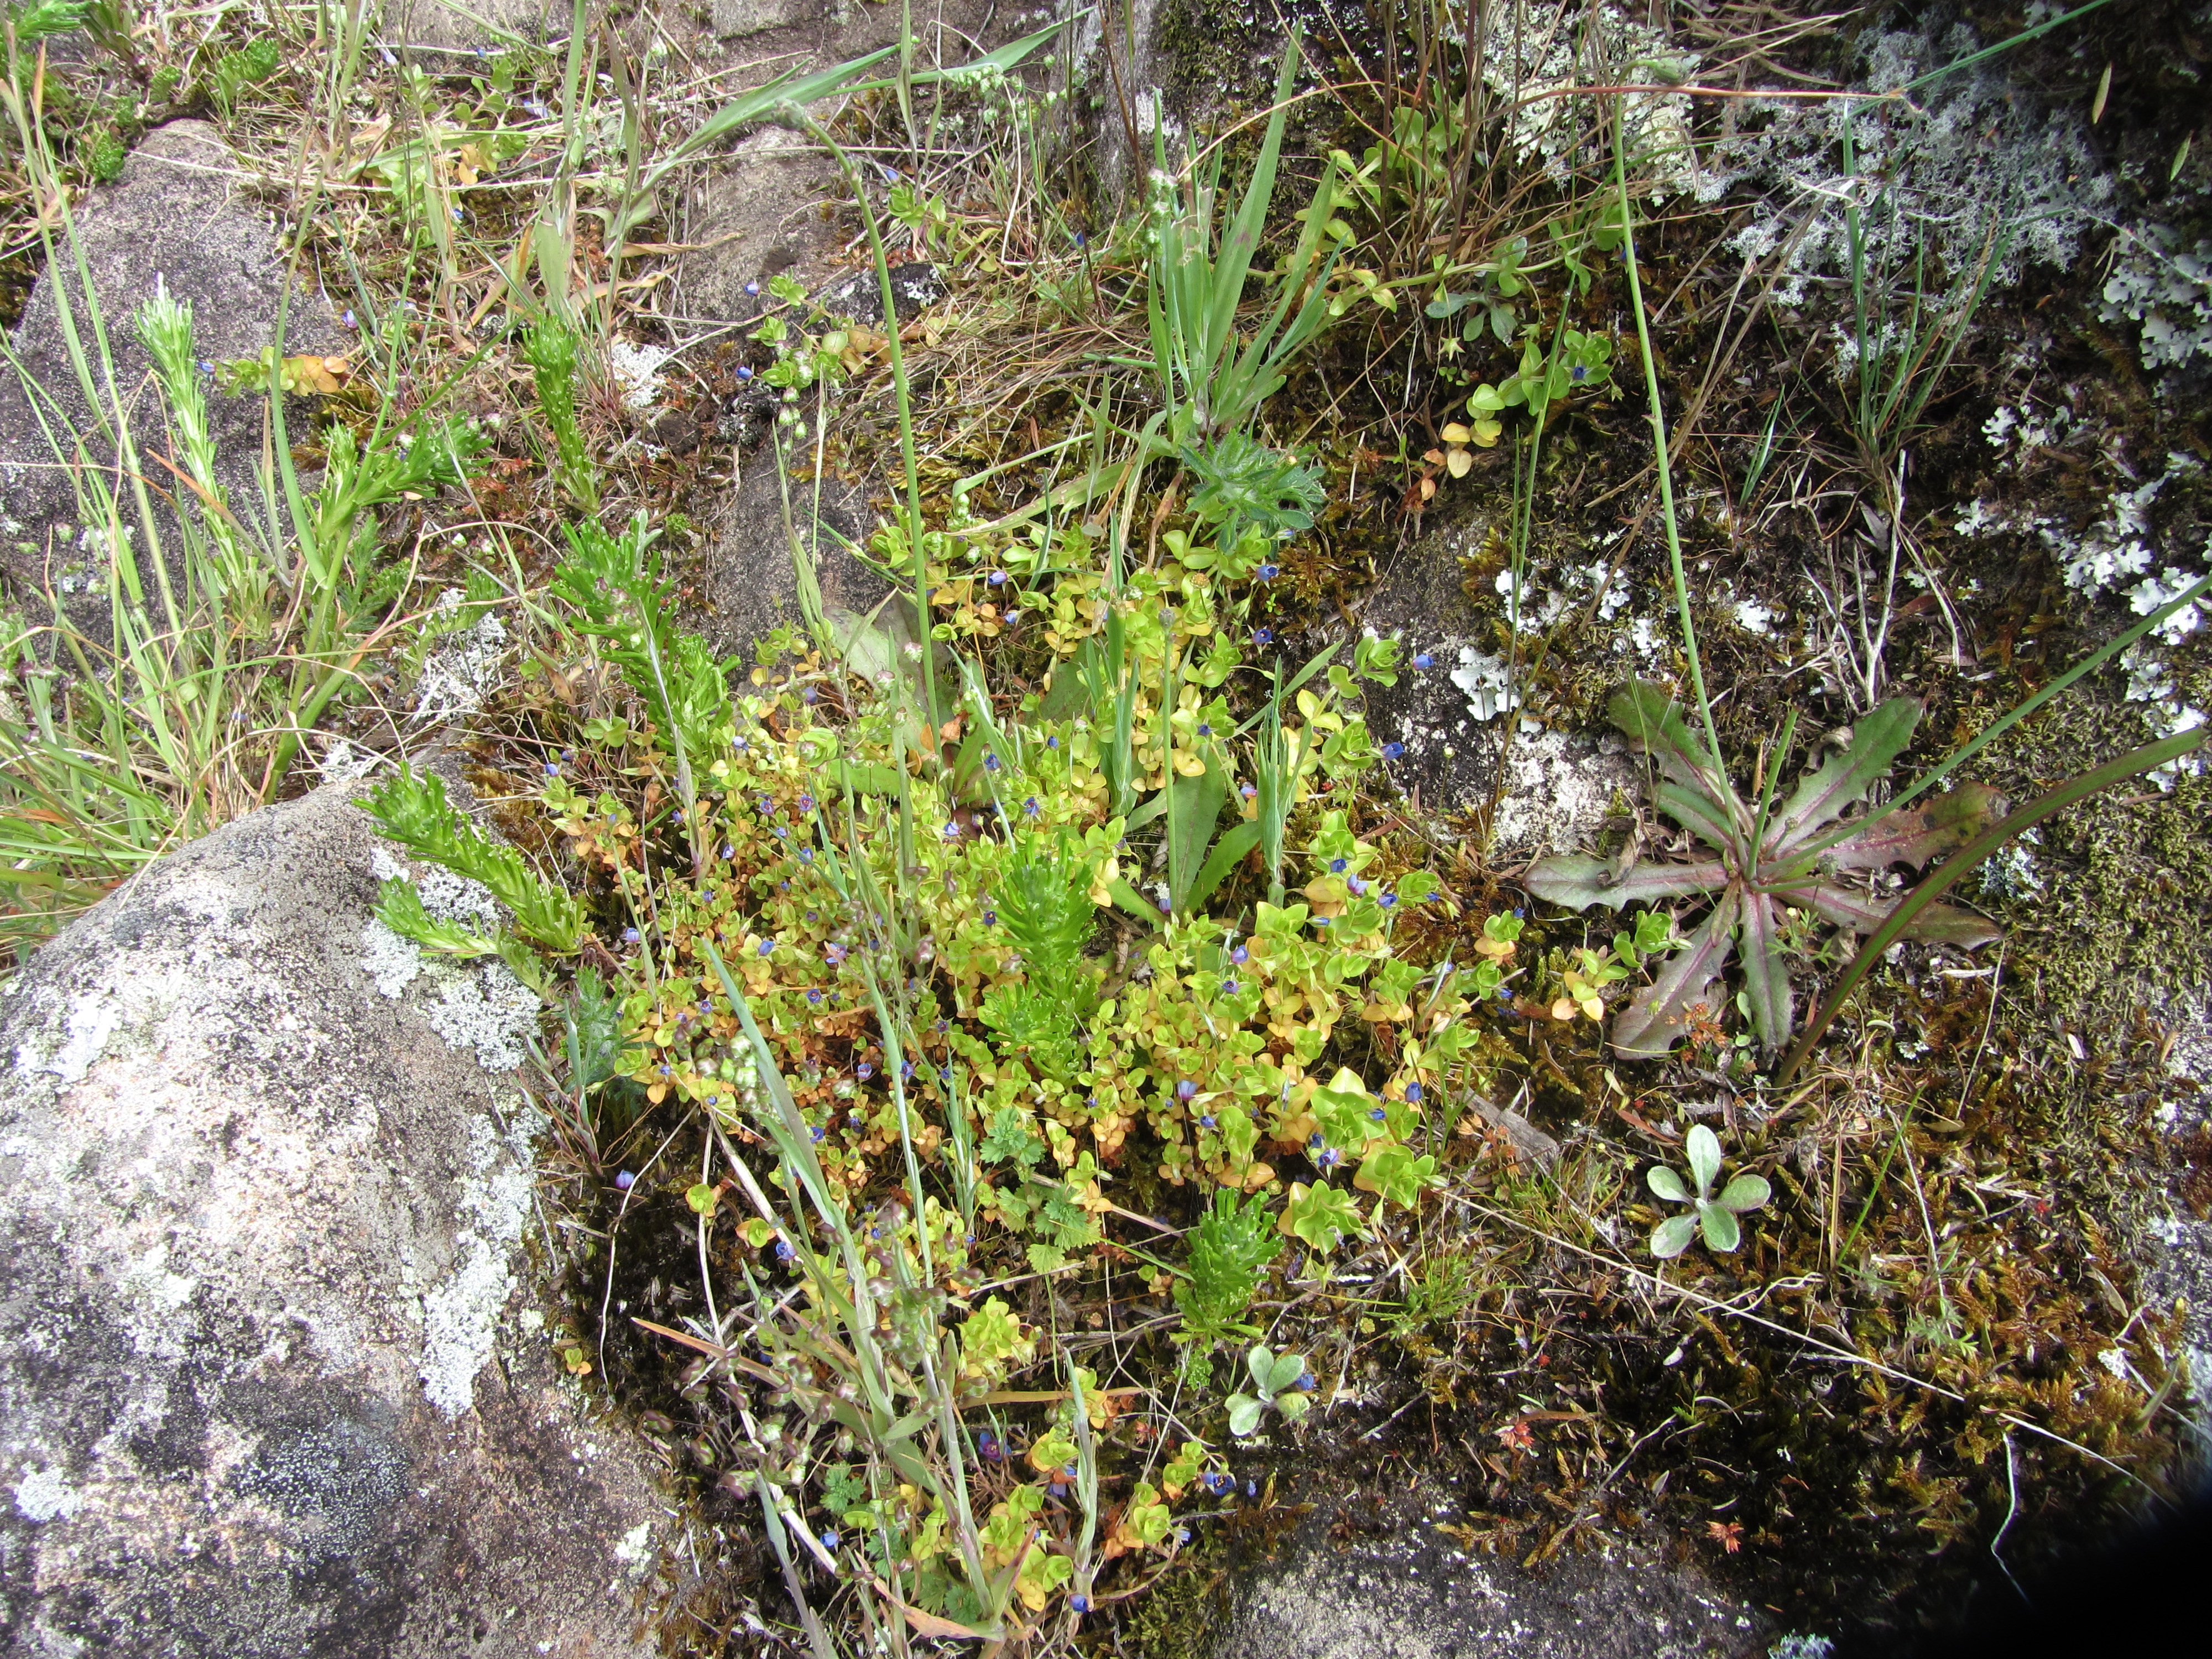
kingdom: Plantae
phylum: Tracheophyta
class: Magnoliopsida
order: Ericales
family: Primulaceae
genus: Lysimachia
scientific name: Lysimachia loeflingii
